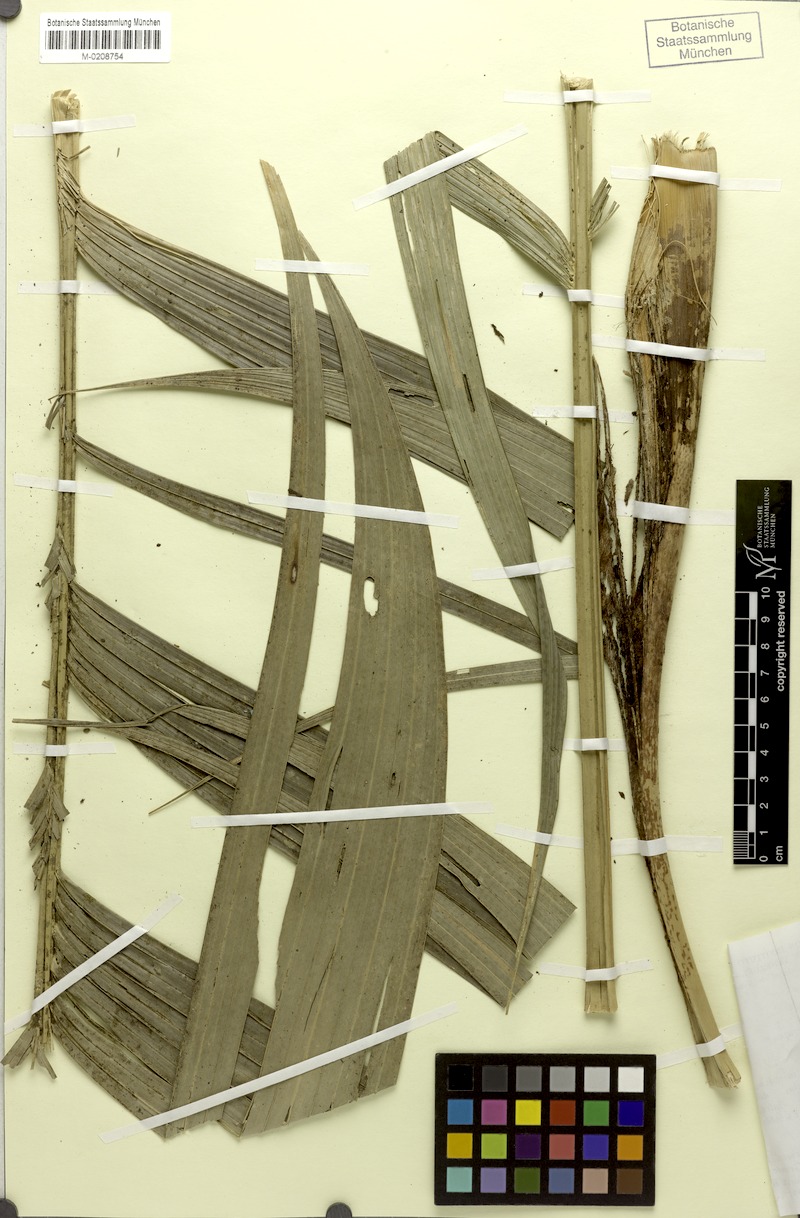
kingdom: Plantae
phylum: Tracheophyta
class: Liliopsida
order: Arecales
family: Arecaceae
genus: Geonoma
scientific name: Geonoma interrupta
